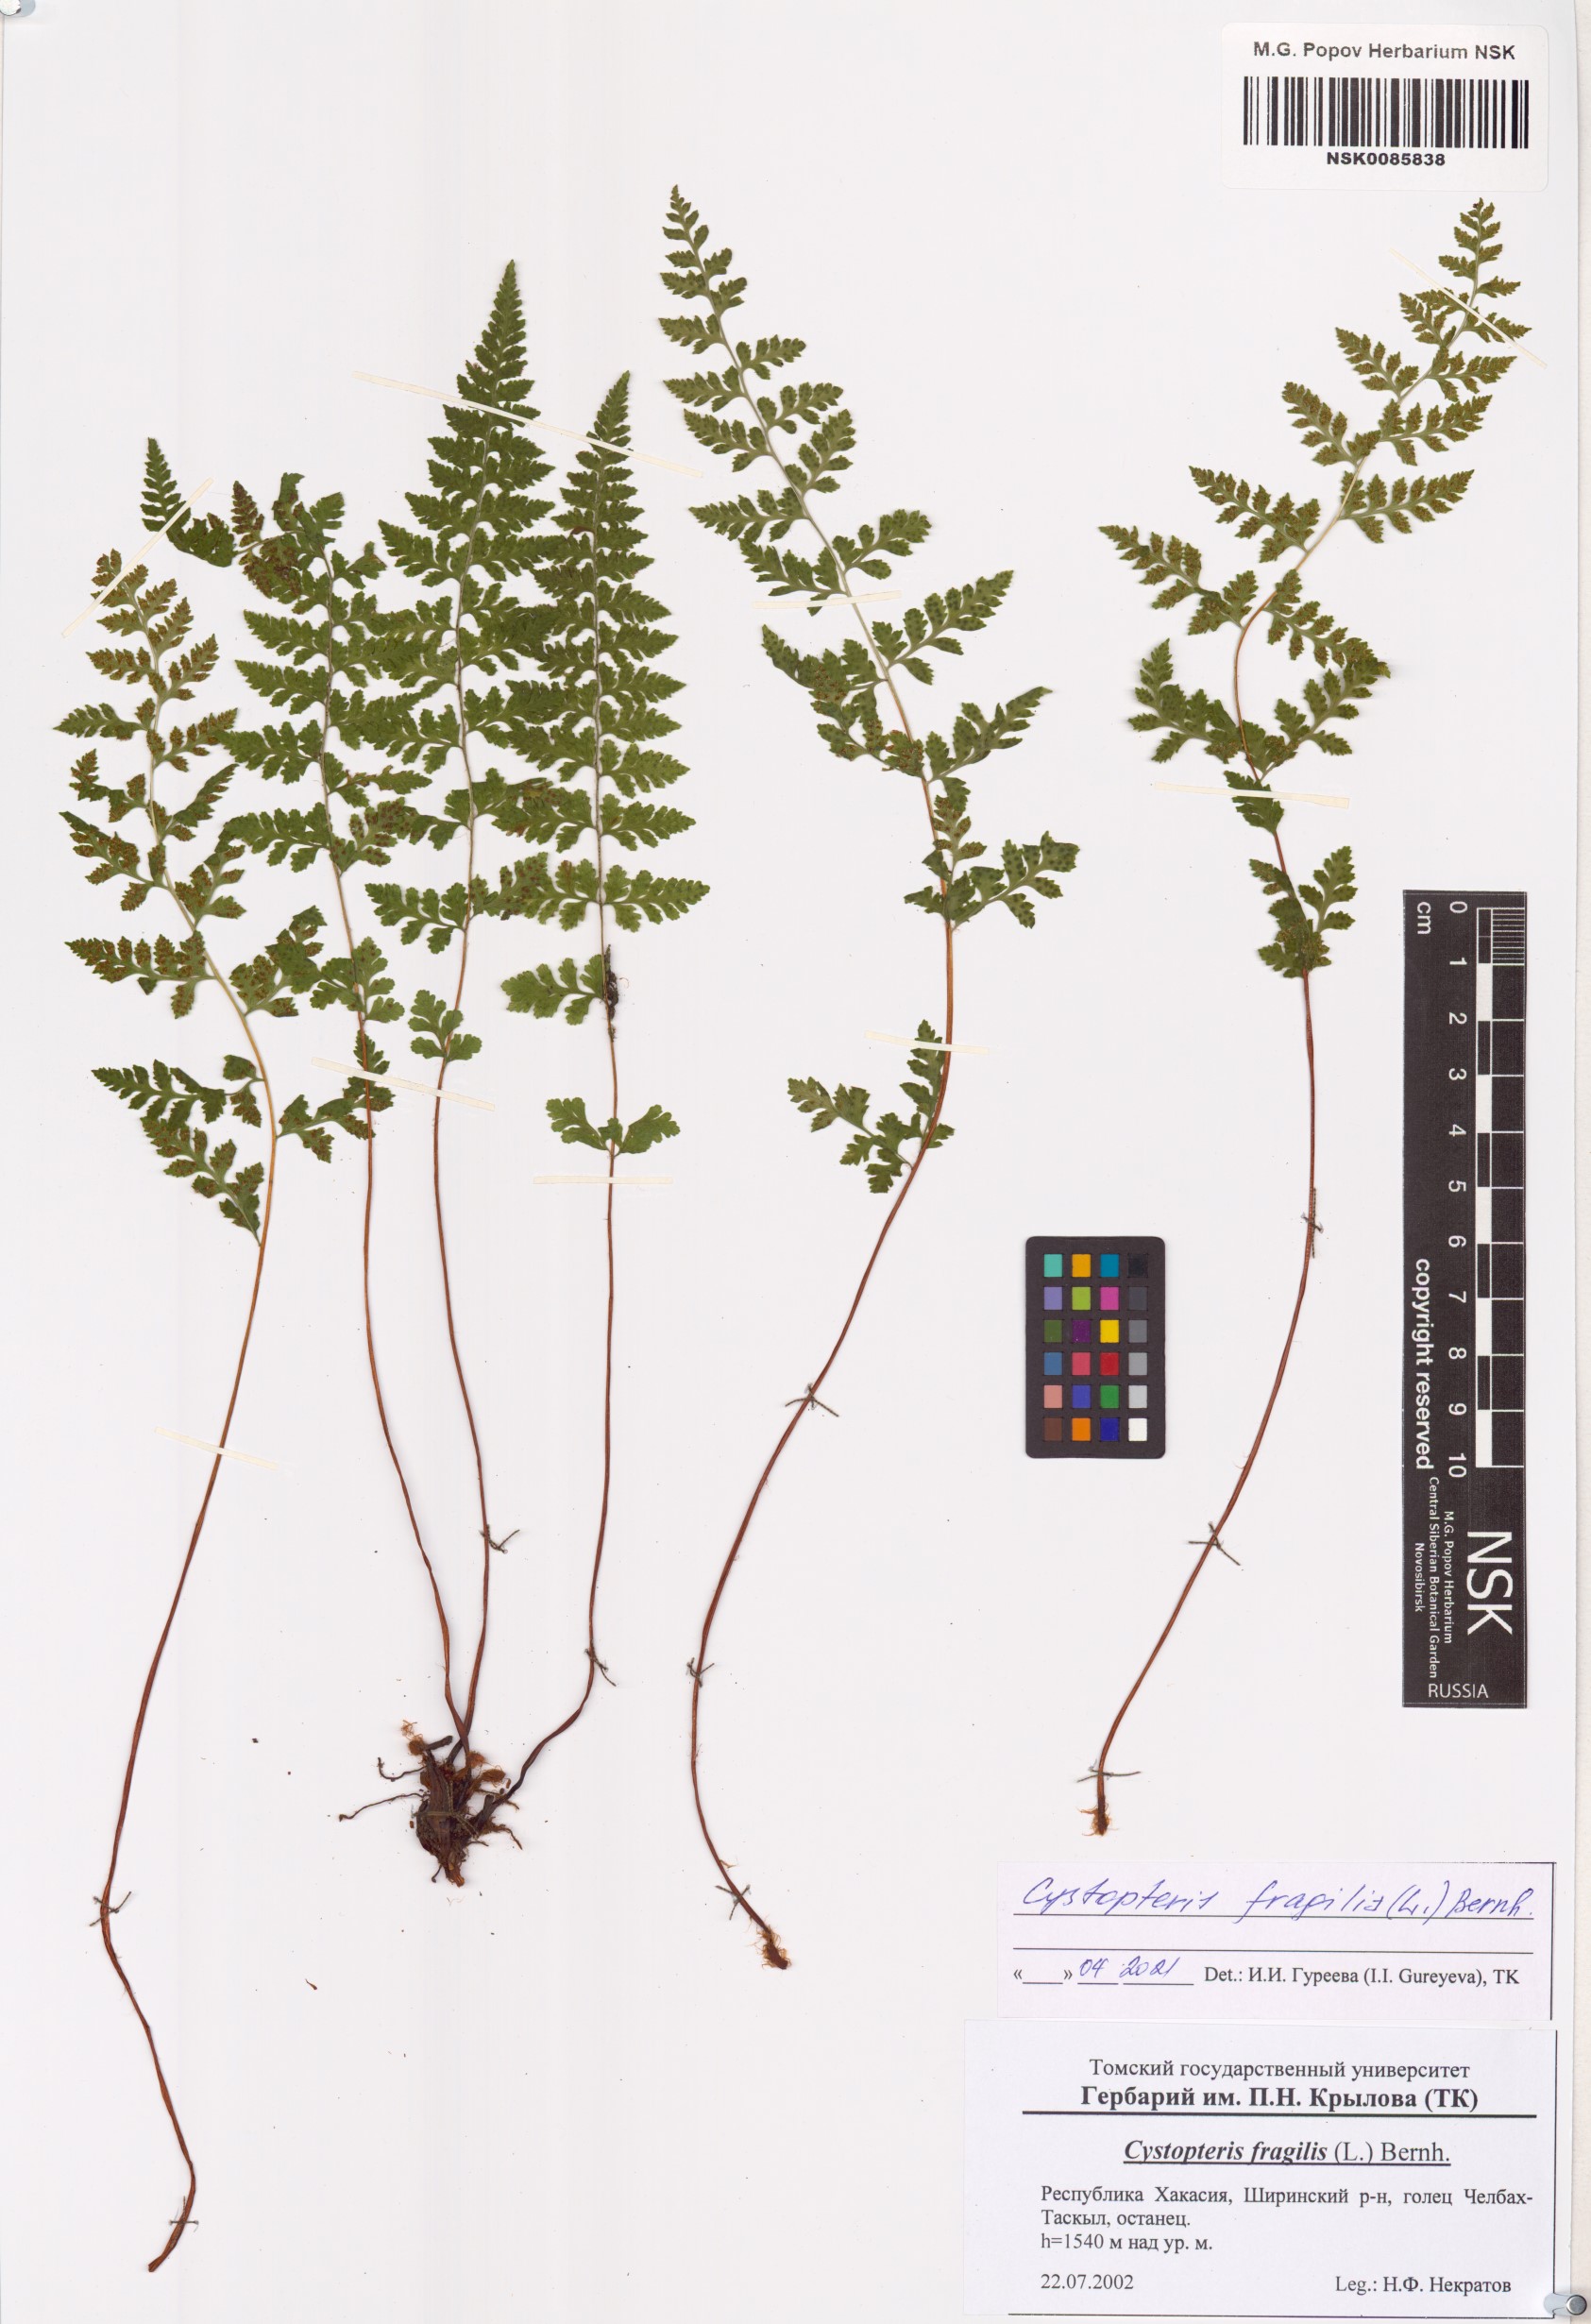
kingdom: Plantae
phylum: Tracheophyta
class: Polypodiopsida
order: Polypodiales
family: Cystopteridaceae
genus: Cystopteris
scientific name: Cystopteris fragilis
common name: Brittle bladder fern
